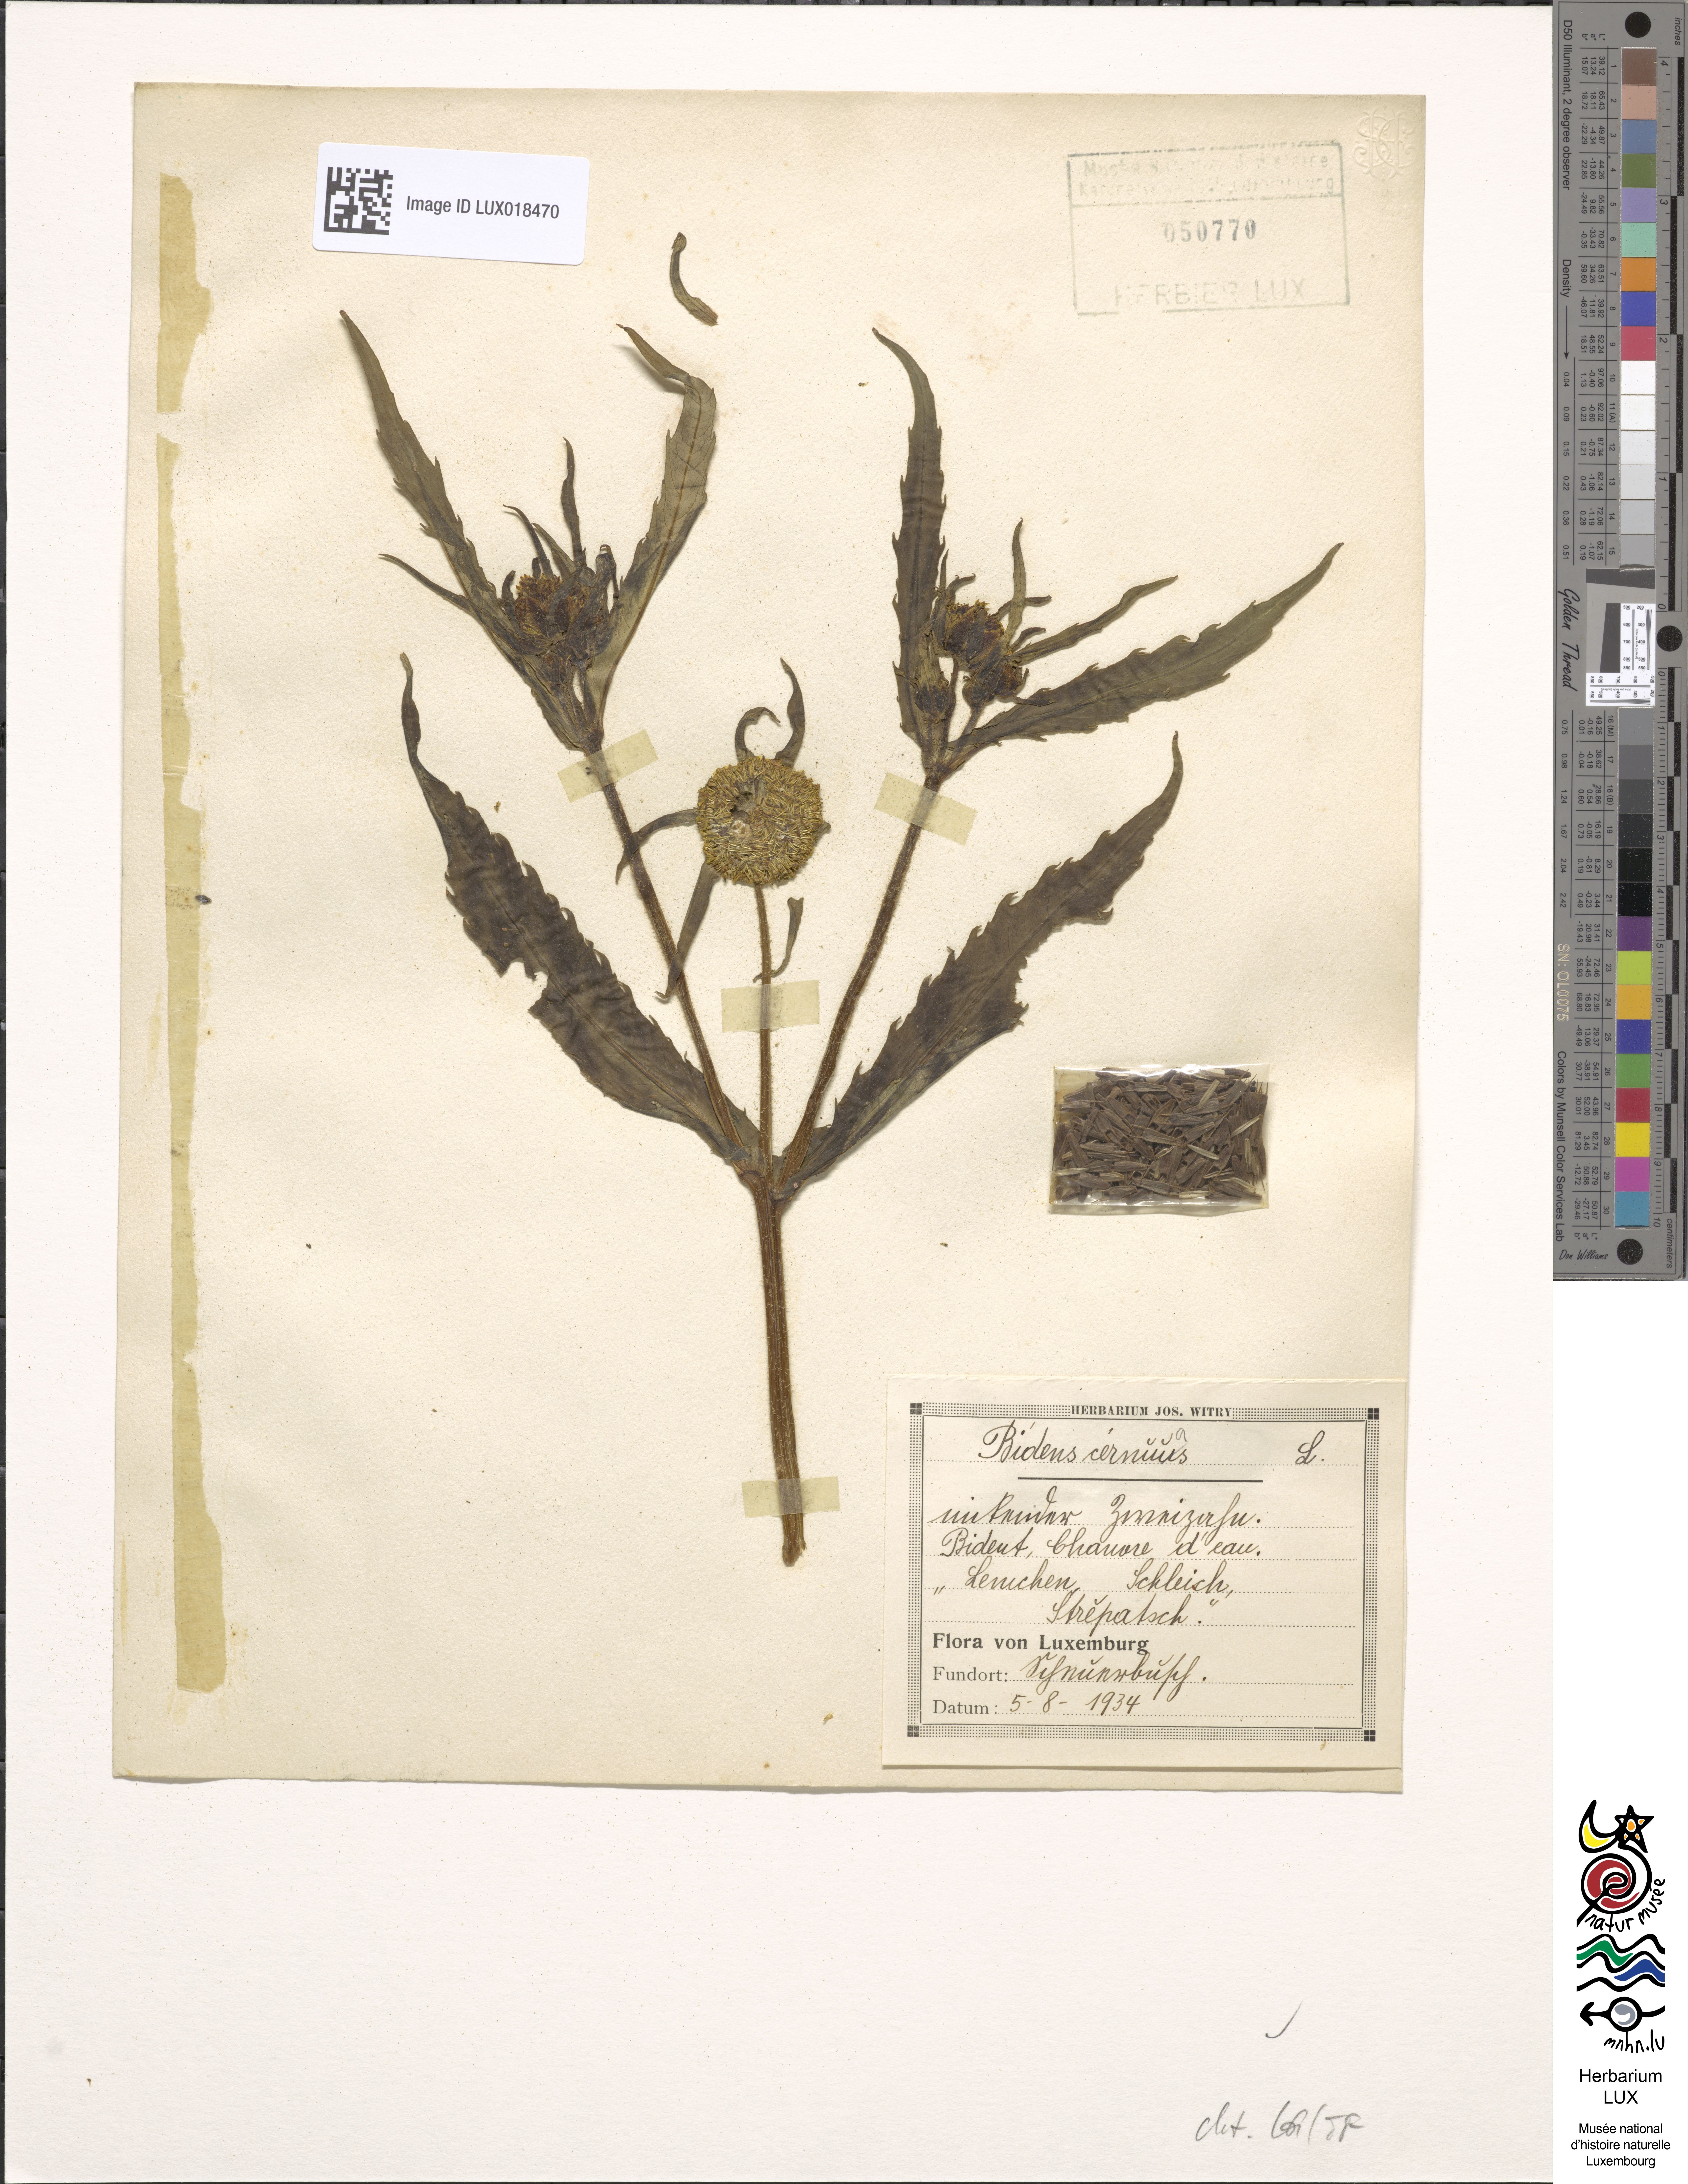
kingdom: Plantae
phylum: Tracheophyta
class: Magnoliopsida
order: Asterales
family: Asteraceae
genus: Bidens
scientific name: Bidens cernua
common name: Nodding bur-marigold
